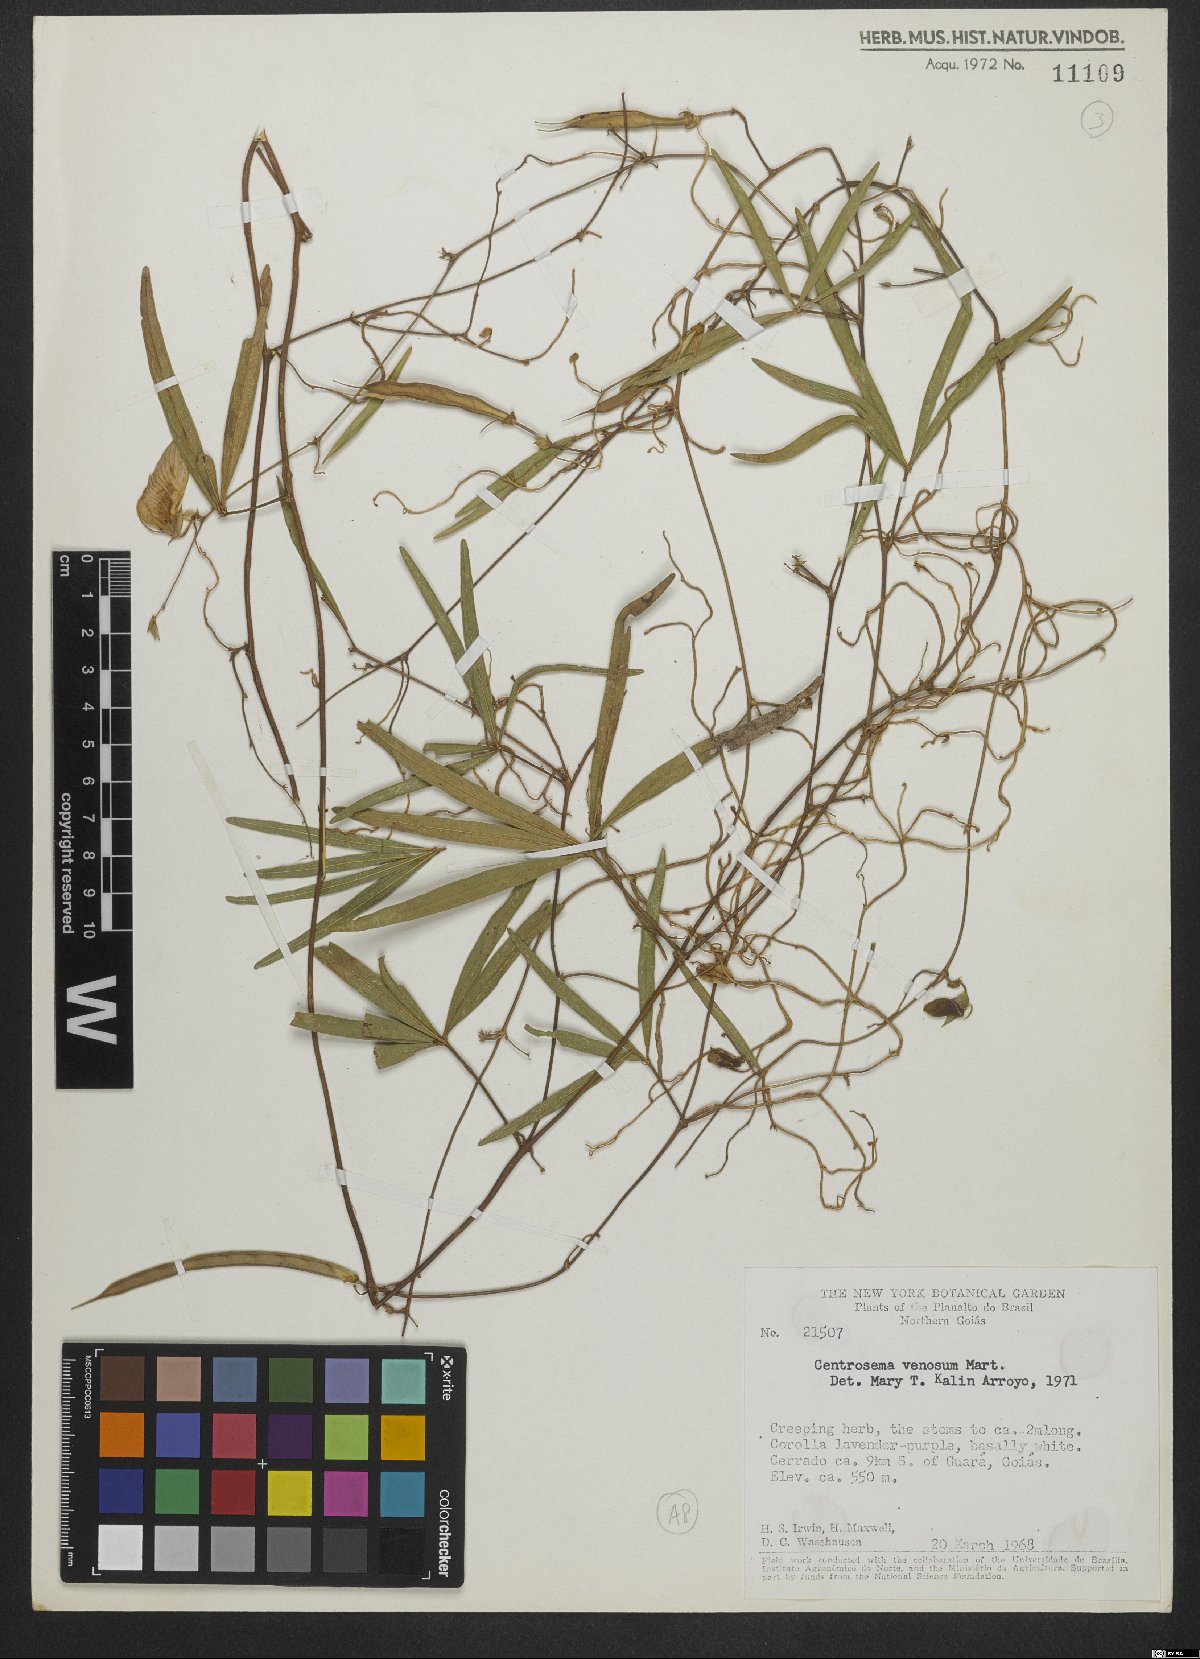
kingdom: Plantae
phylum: Tracheophyta
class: Magnoliopsida
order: Fabales
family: Fabaceae
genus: Centrosema
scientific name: Centrosema venosum
